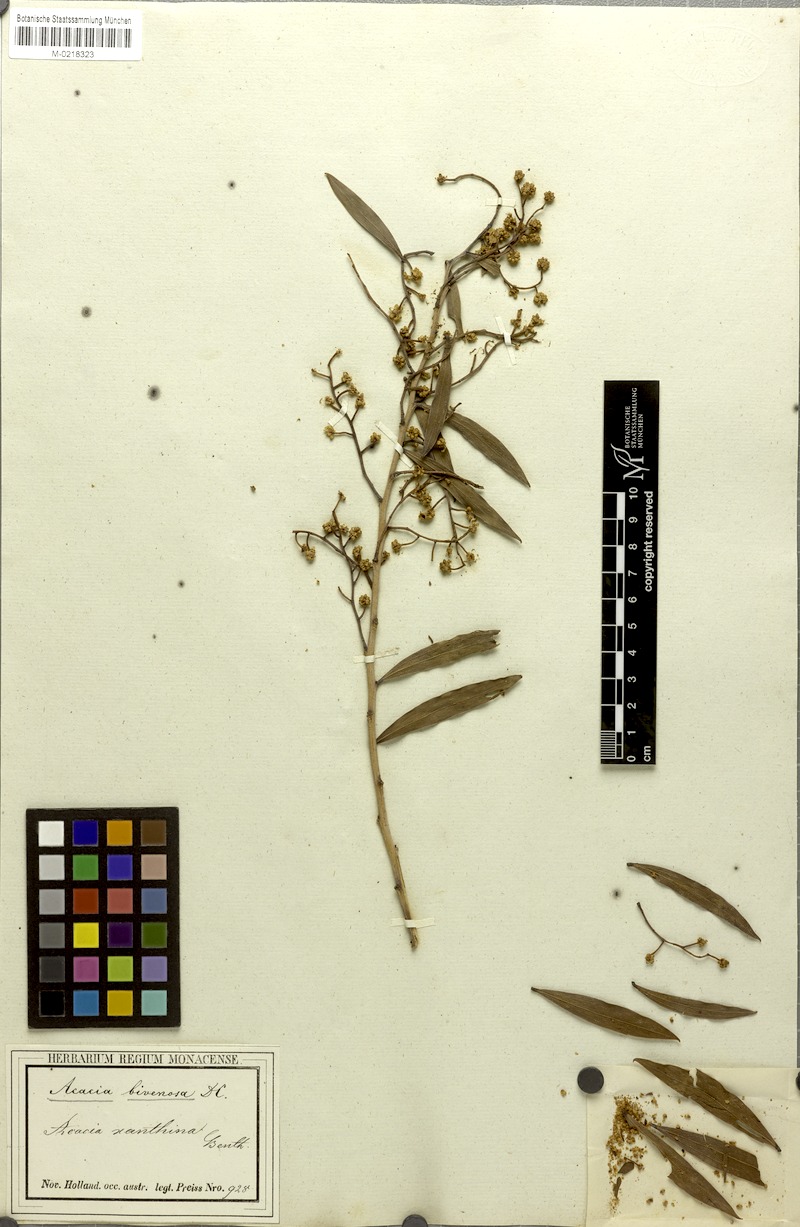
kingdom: Plantae
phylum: Tracheophyta
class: Magnoliopsida
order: Fabales
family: Fabaceae
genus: Acacia
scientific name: Acacia bivenosa
